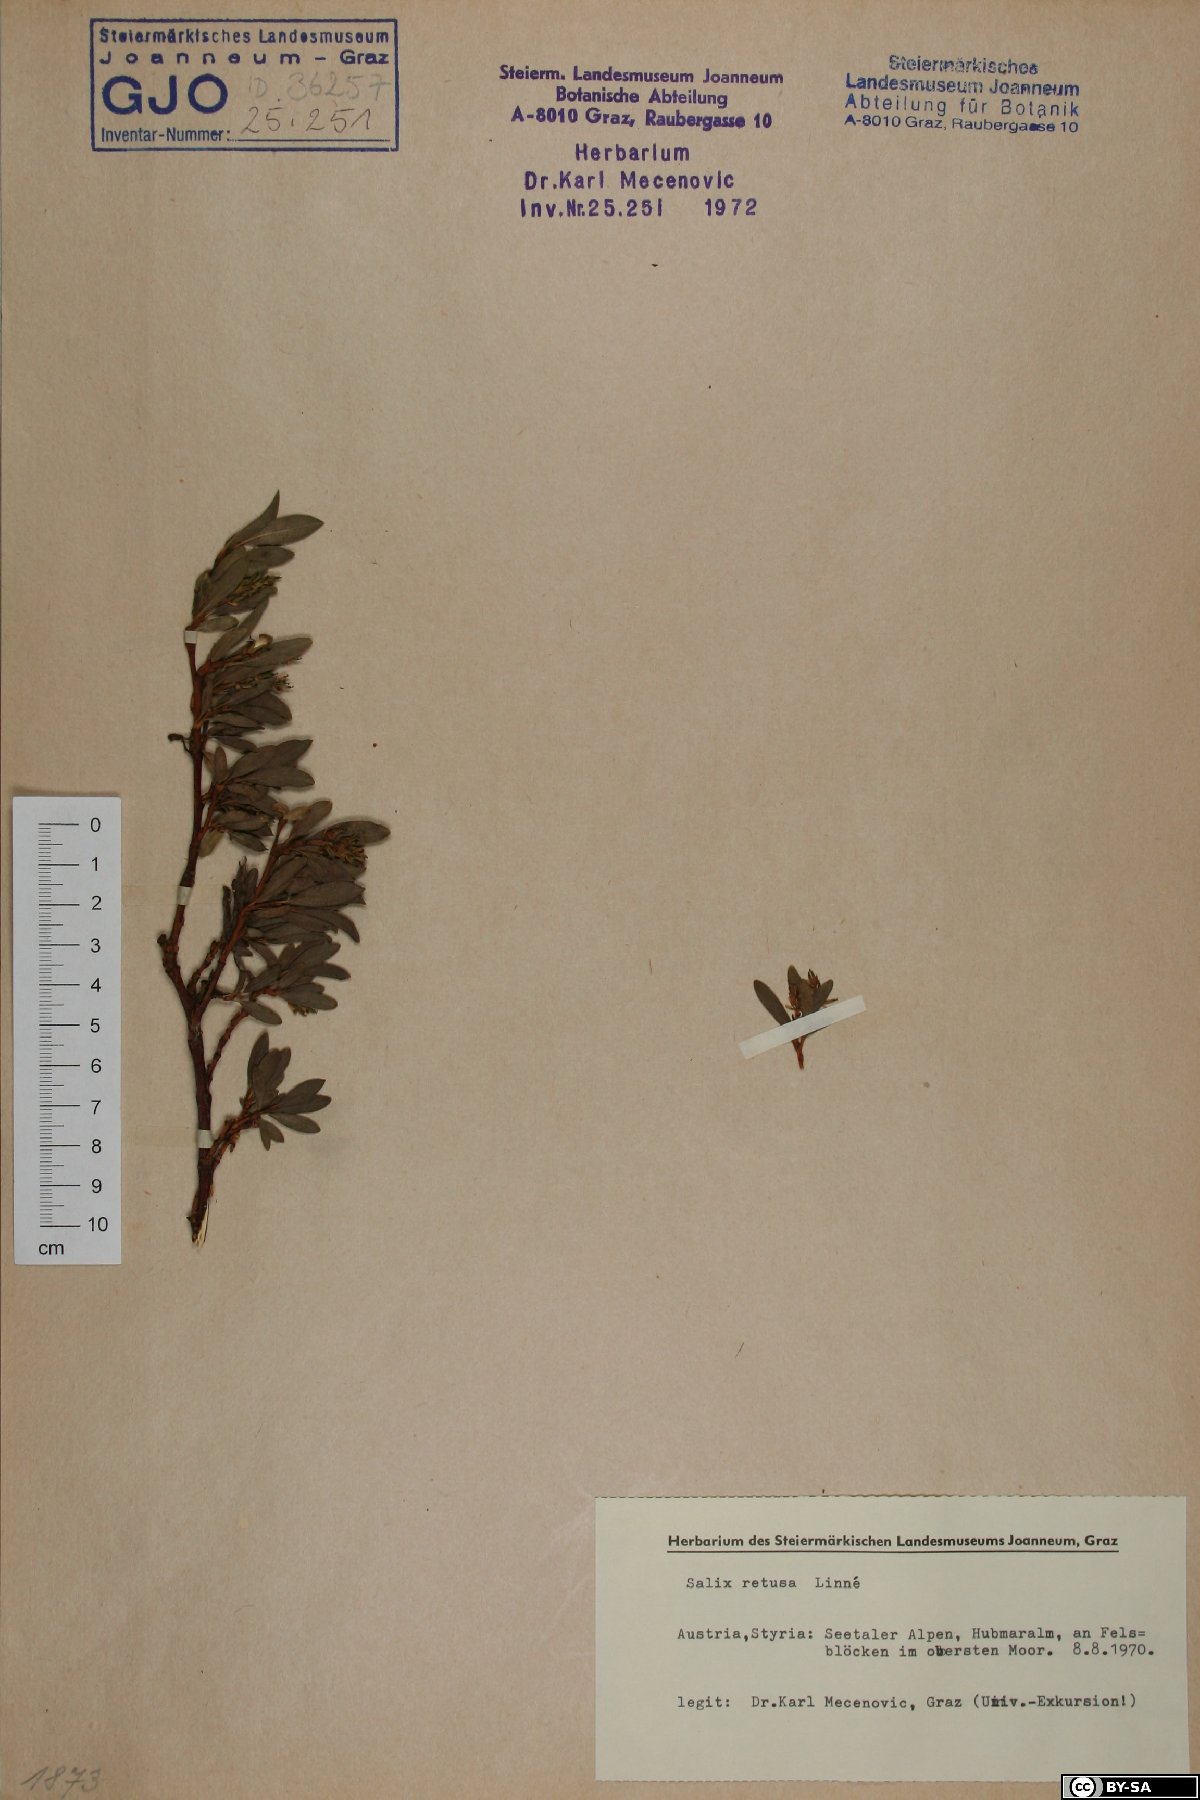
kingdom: Plantae
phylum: Tracheophyta
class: Magnoliopsida
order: Malpighiales
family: Salicaceae
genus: Salix
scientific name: Salix retusa
